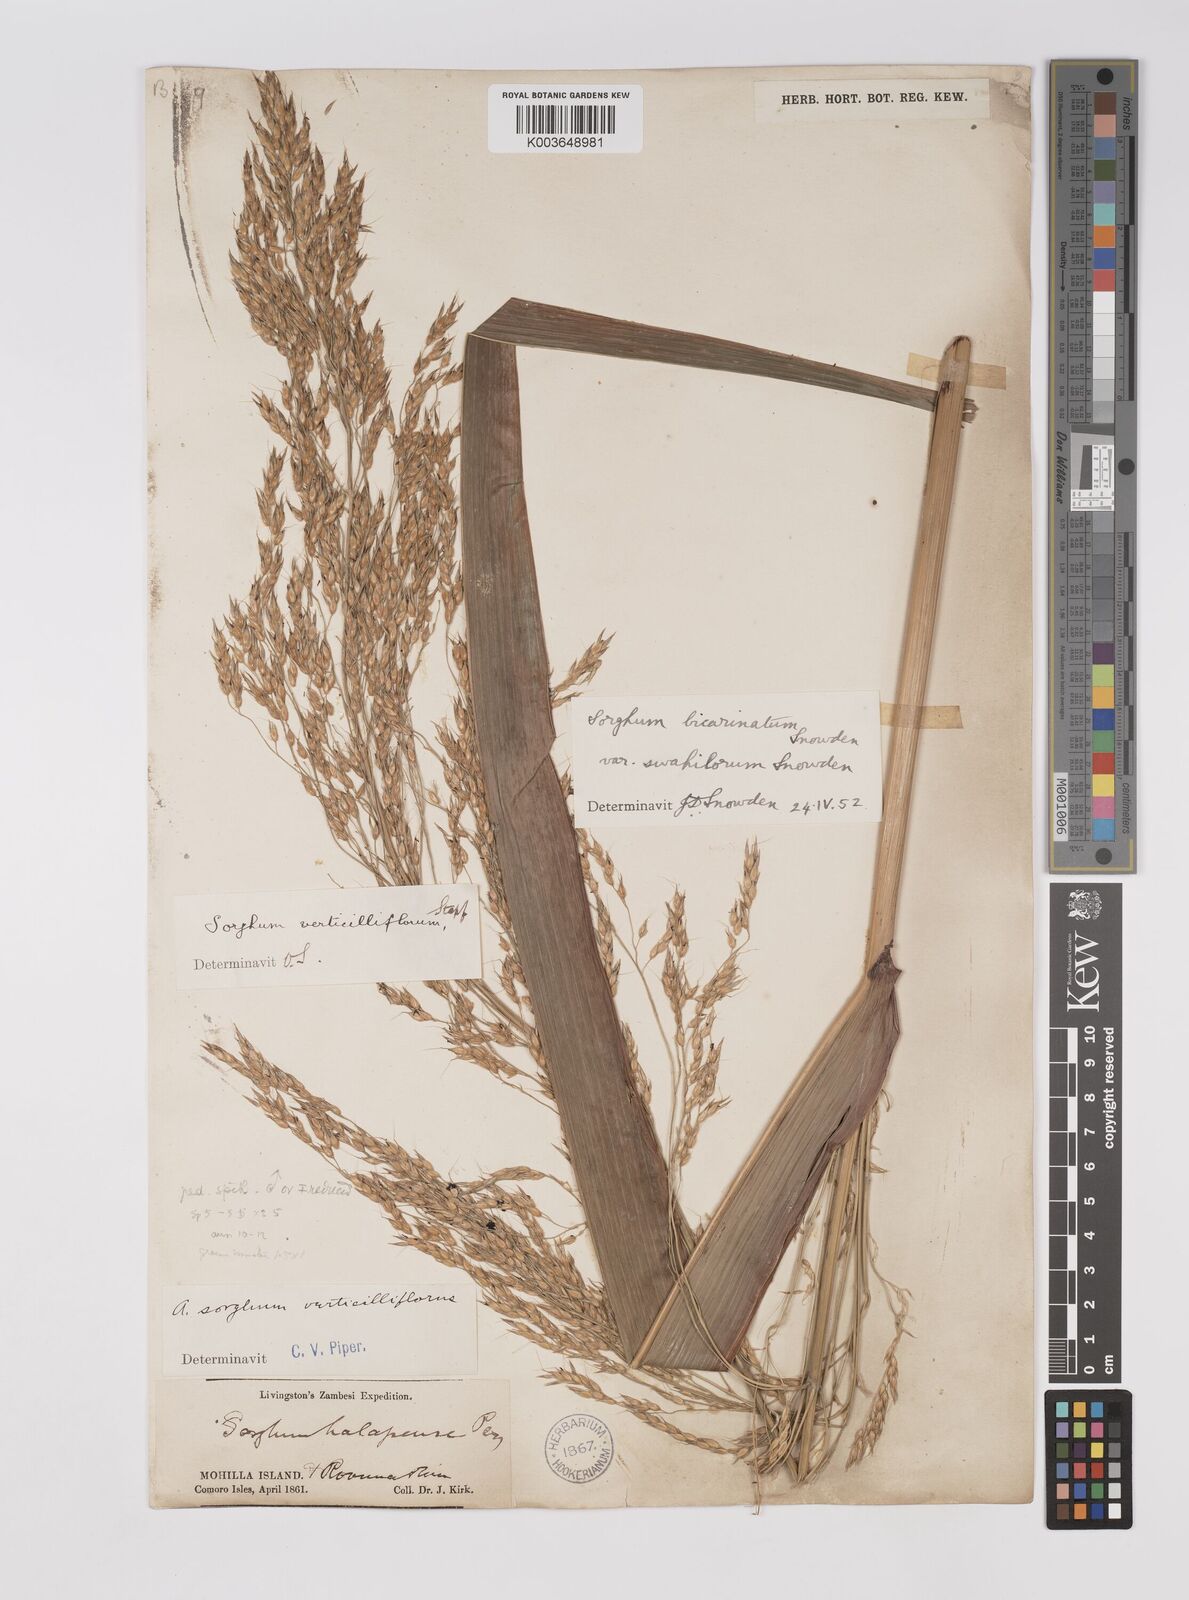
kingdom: Plantae
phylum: Tracheophyta
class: Liliopsida
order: Poales
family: Poaceae
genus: Sorghum
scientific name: Sorghum arundinaceum
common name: Sorghum
